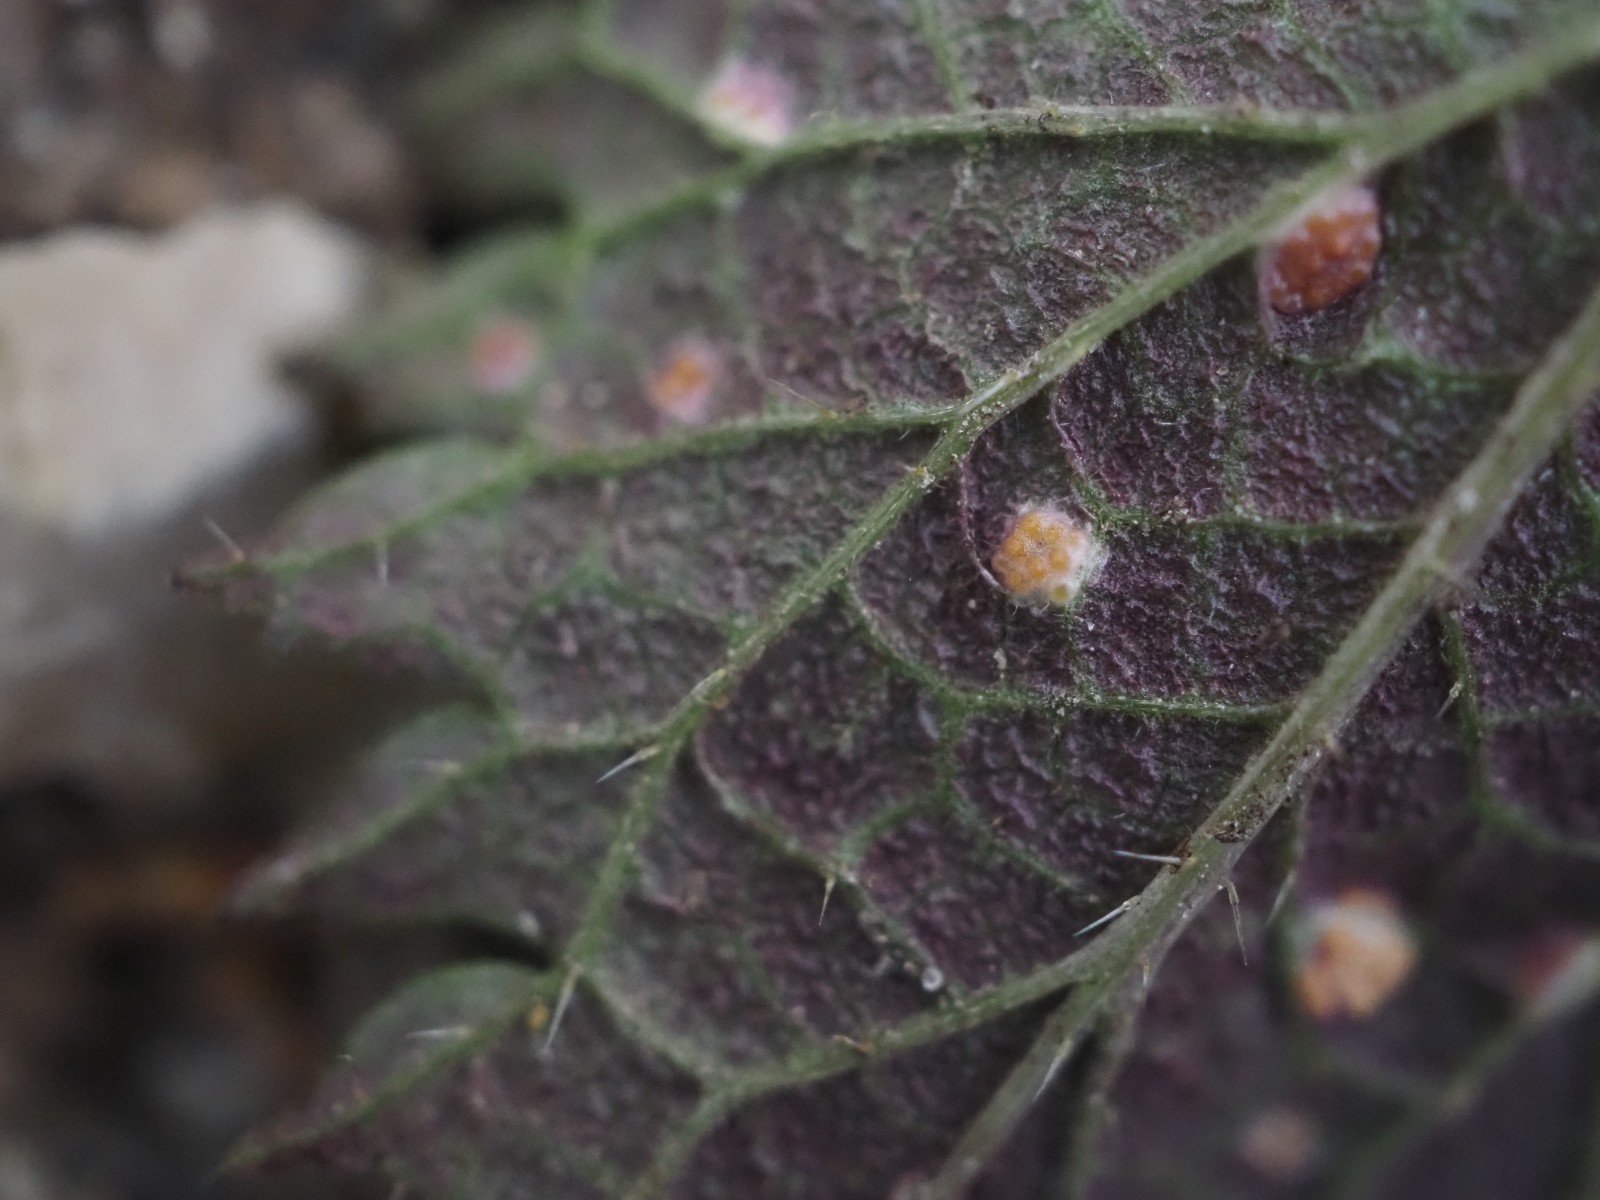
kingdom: Fungi
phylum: Basidiomycota
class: Pucciniomycetes
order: Pucciniales
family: Pucciniaceae
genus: Puccinia
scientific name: Puccinia urticata
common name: nældegalle-tvecellerust
